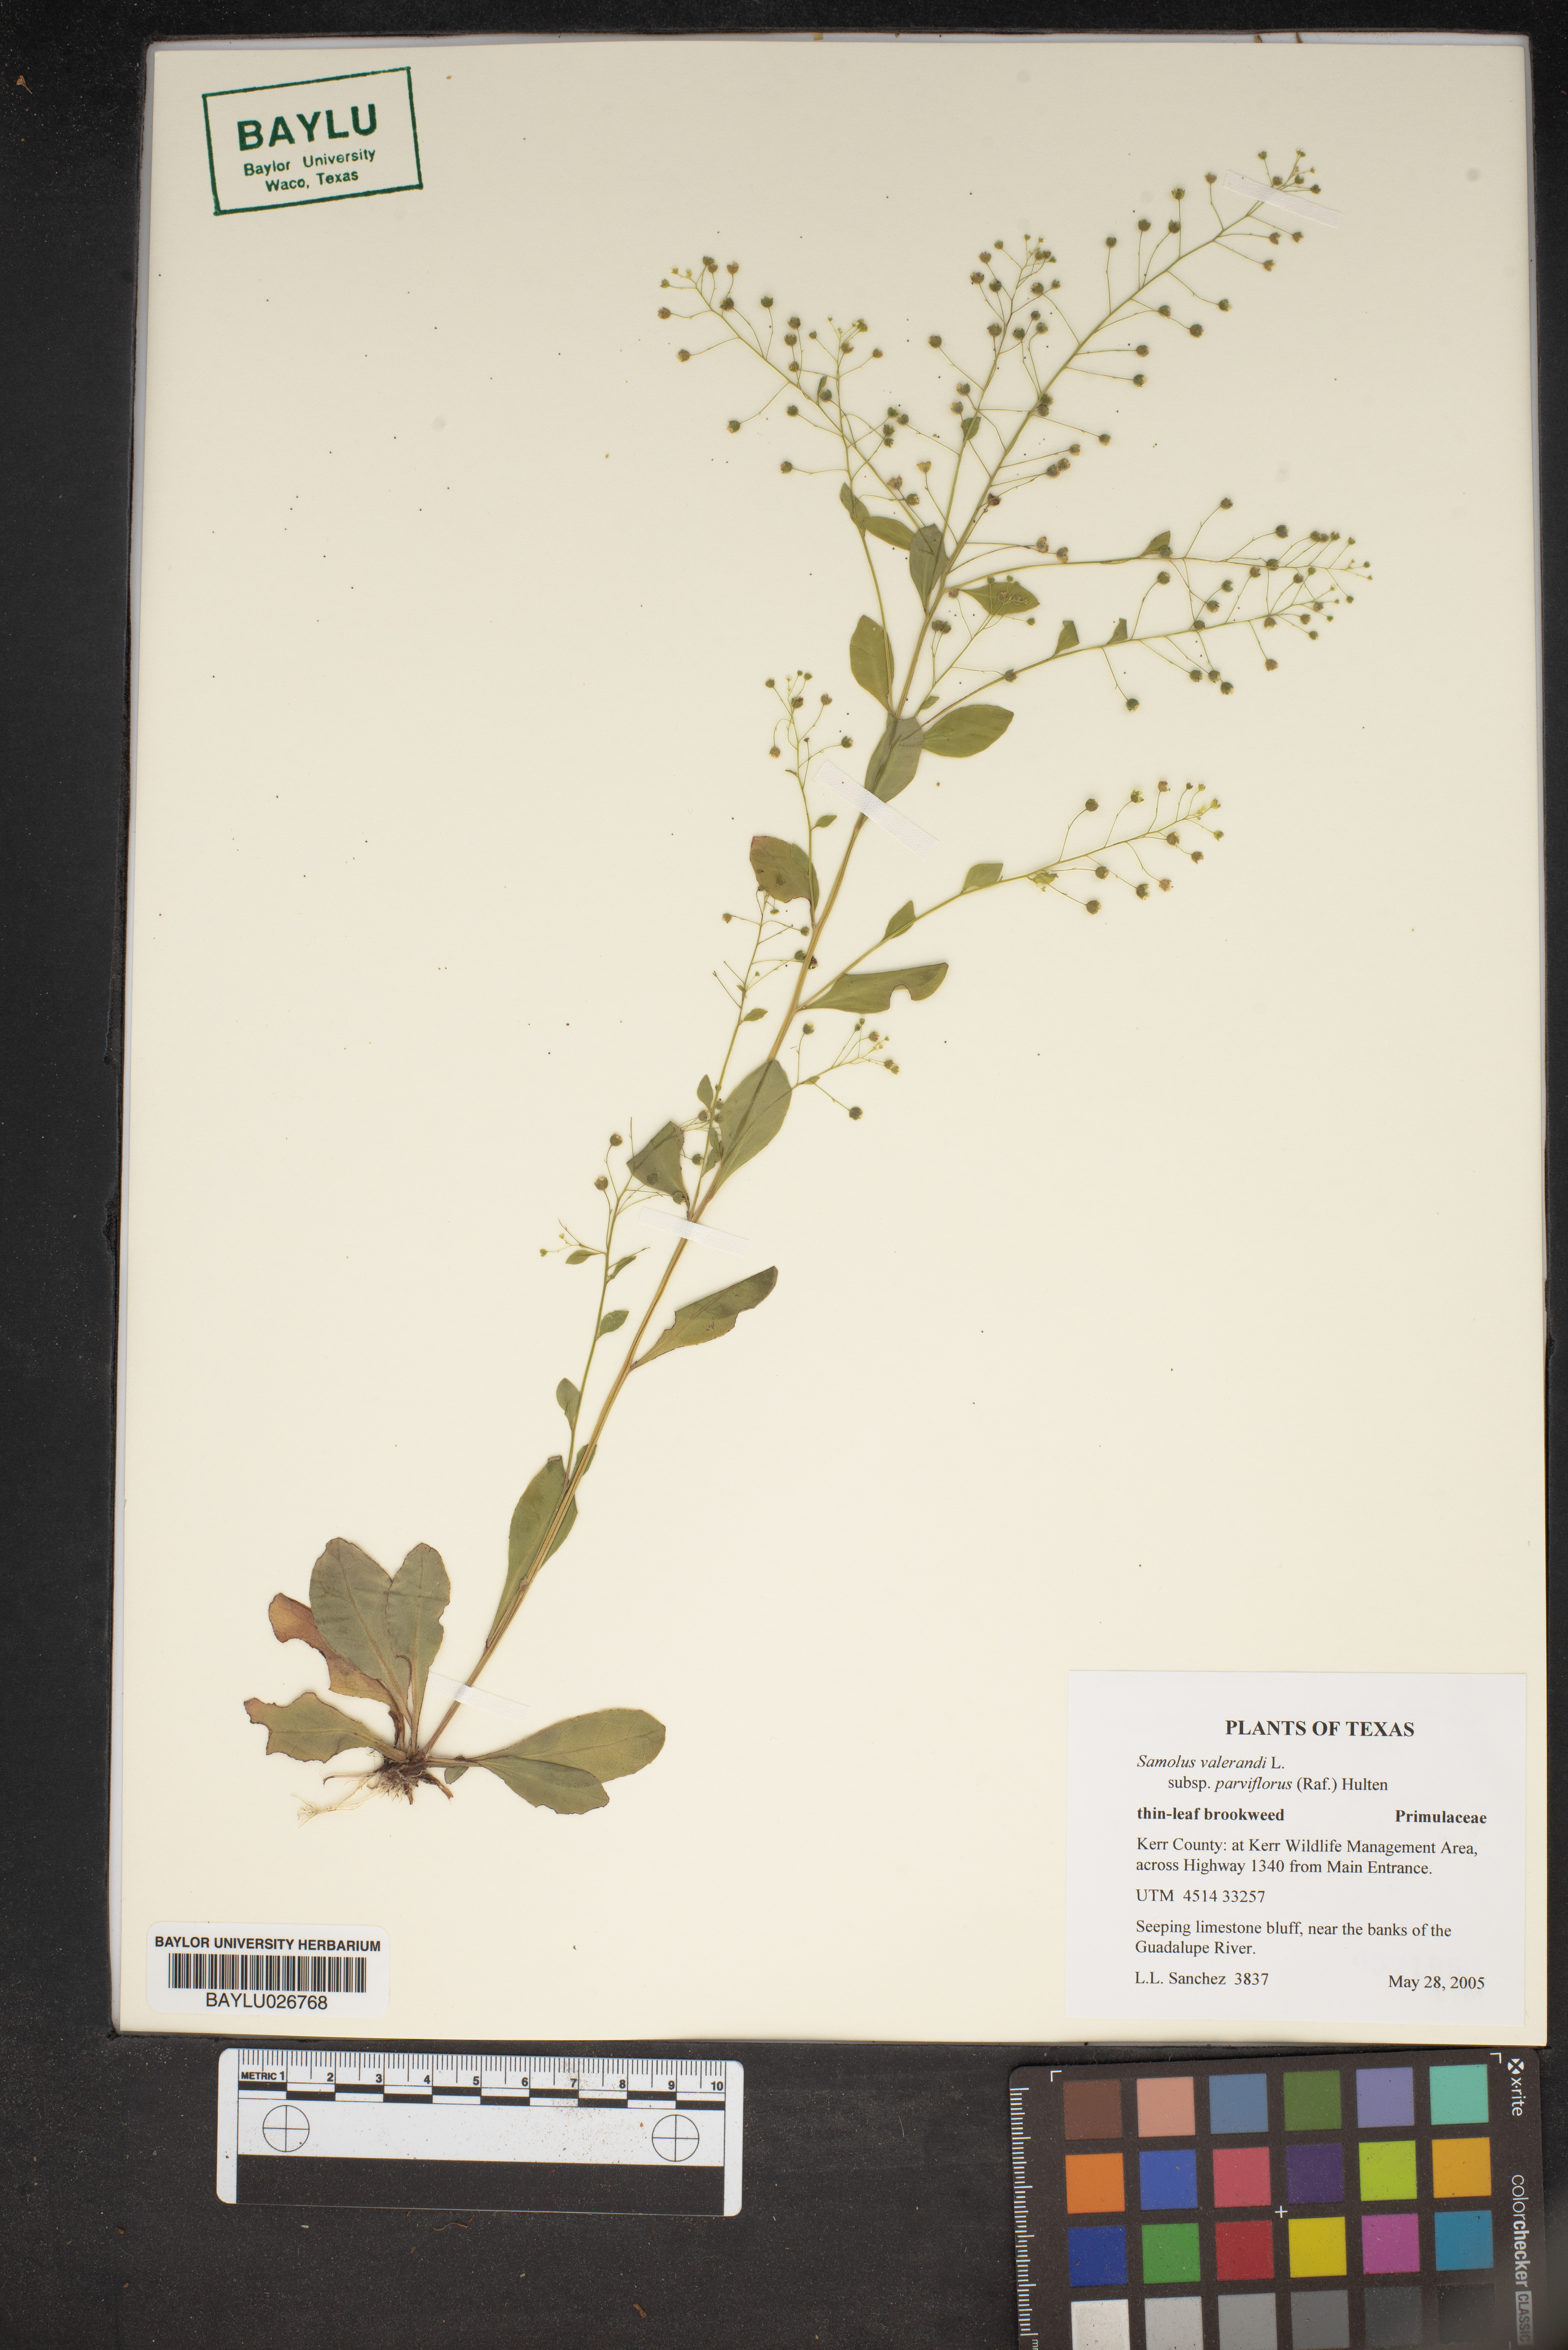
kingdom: Plantae
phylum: Tracheophyta
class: Magnoliopsida
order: Ericales
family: Primulaceae
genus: Samolus
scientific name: Samolus parviflorus
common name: False water pimpernel
